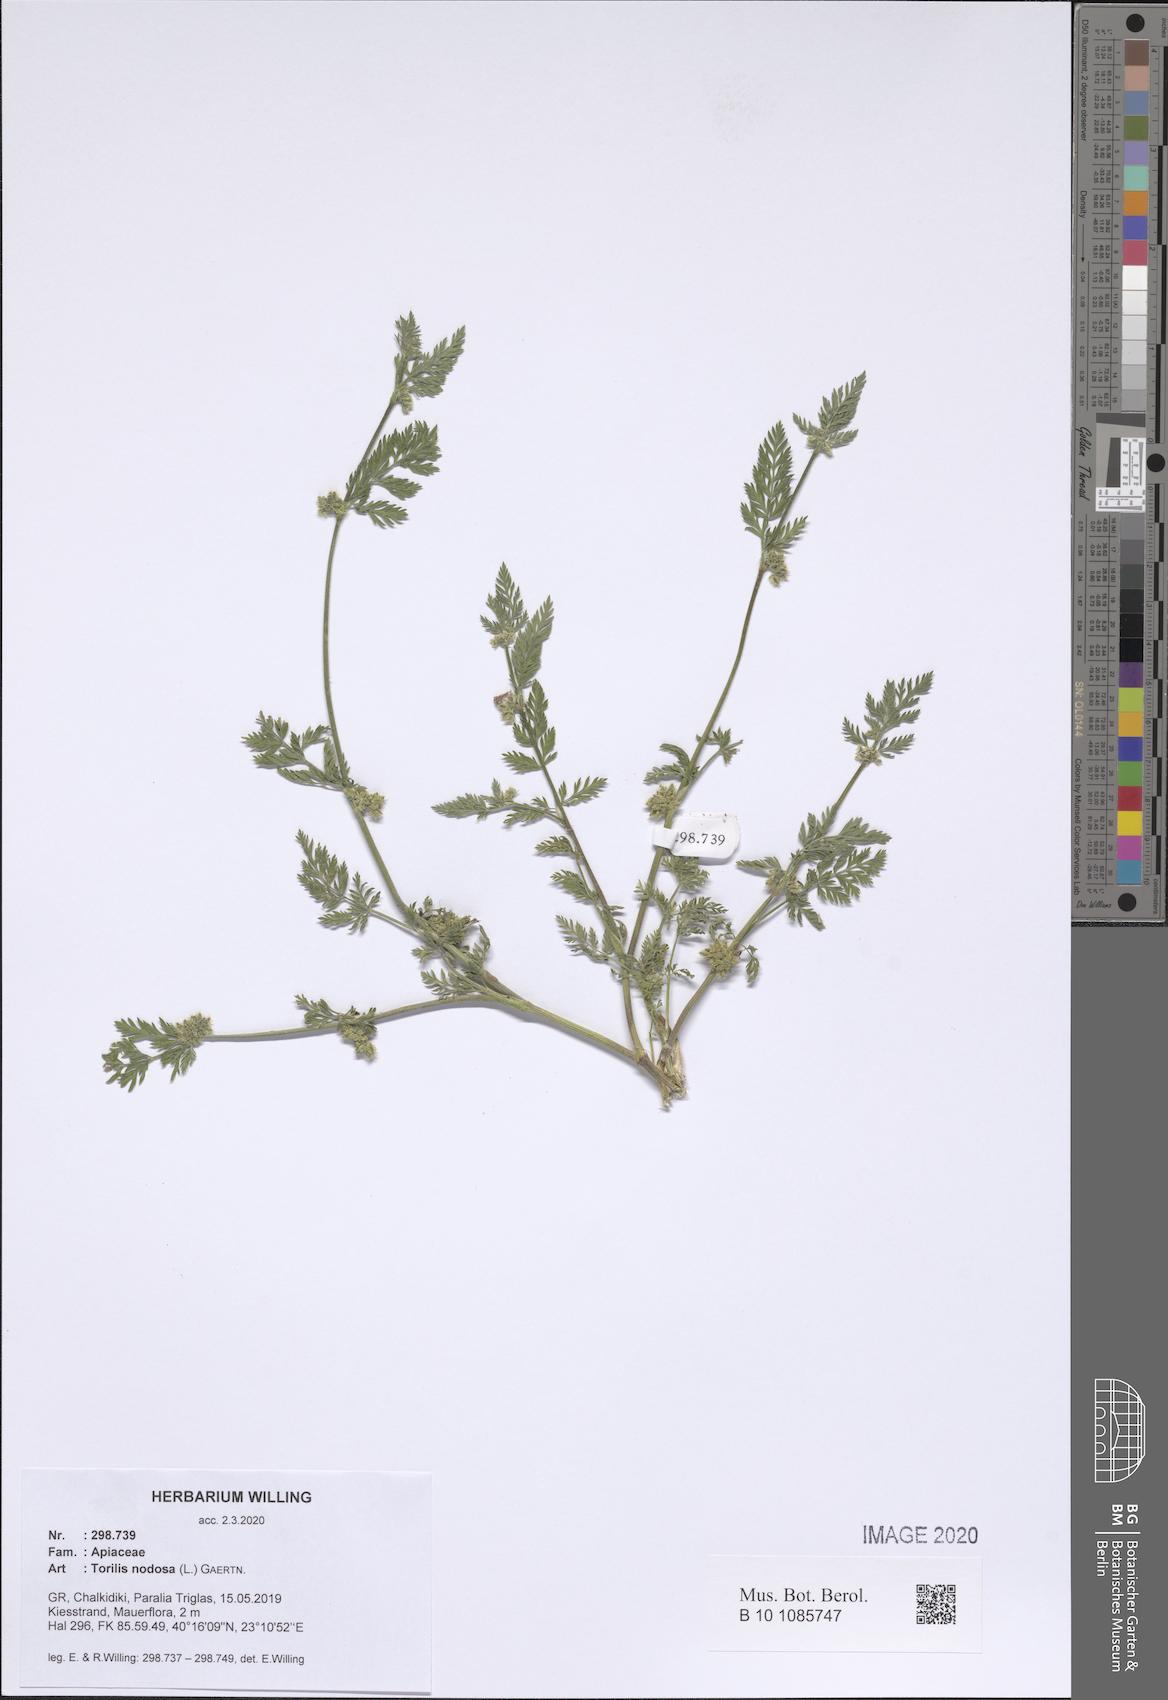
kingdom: Plantae
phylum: Tracheophyta
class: Magnoliopsida
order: Apiales
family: Apiaceae
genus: Torilis
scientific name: Torilis nodosa
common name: Knotted hedge-parsley
